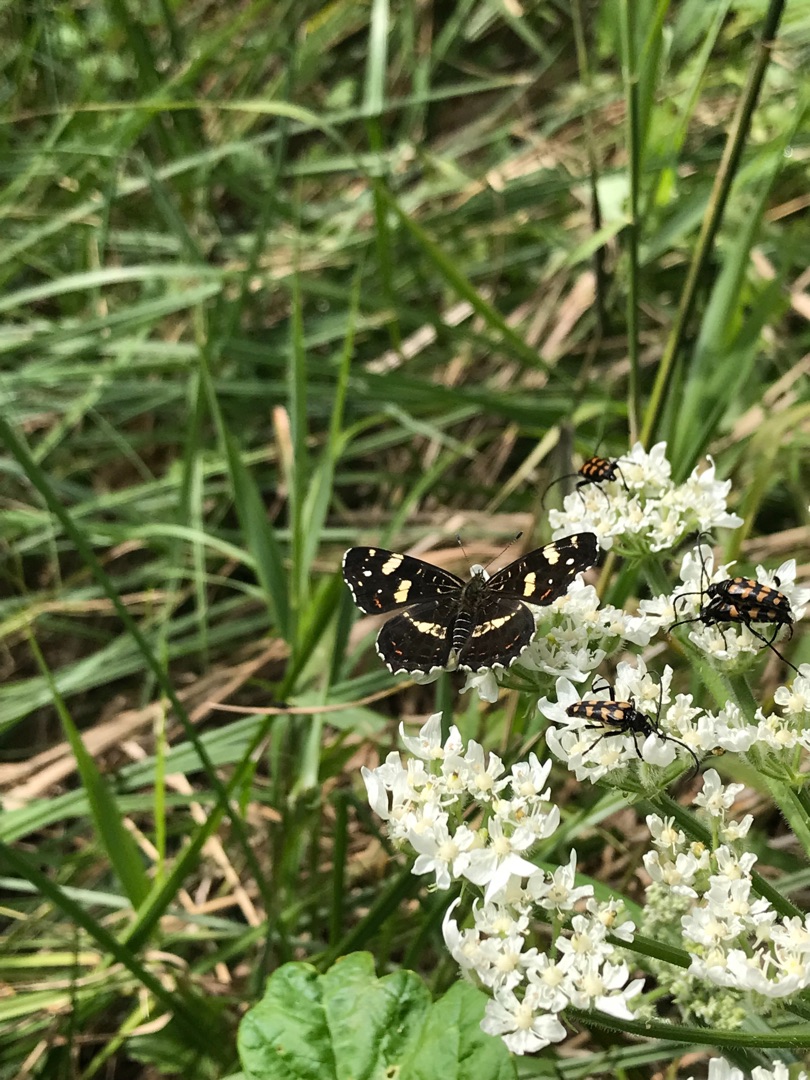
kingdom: Animalia
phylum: Arthropoda
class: Insecta
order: Lepidoptera
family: Nymphalidae
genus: Araschnia
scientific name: Araschnia levana
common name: Nældesommerfugl
